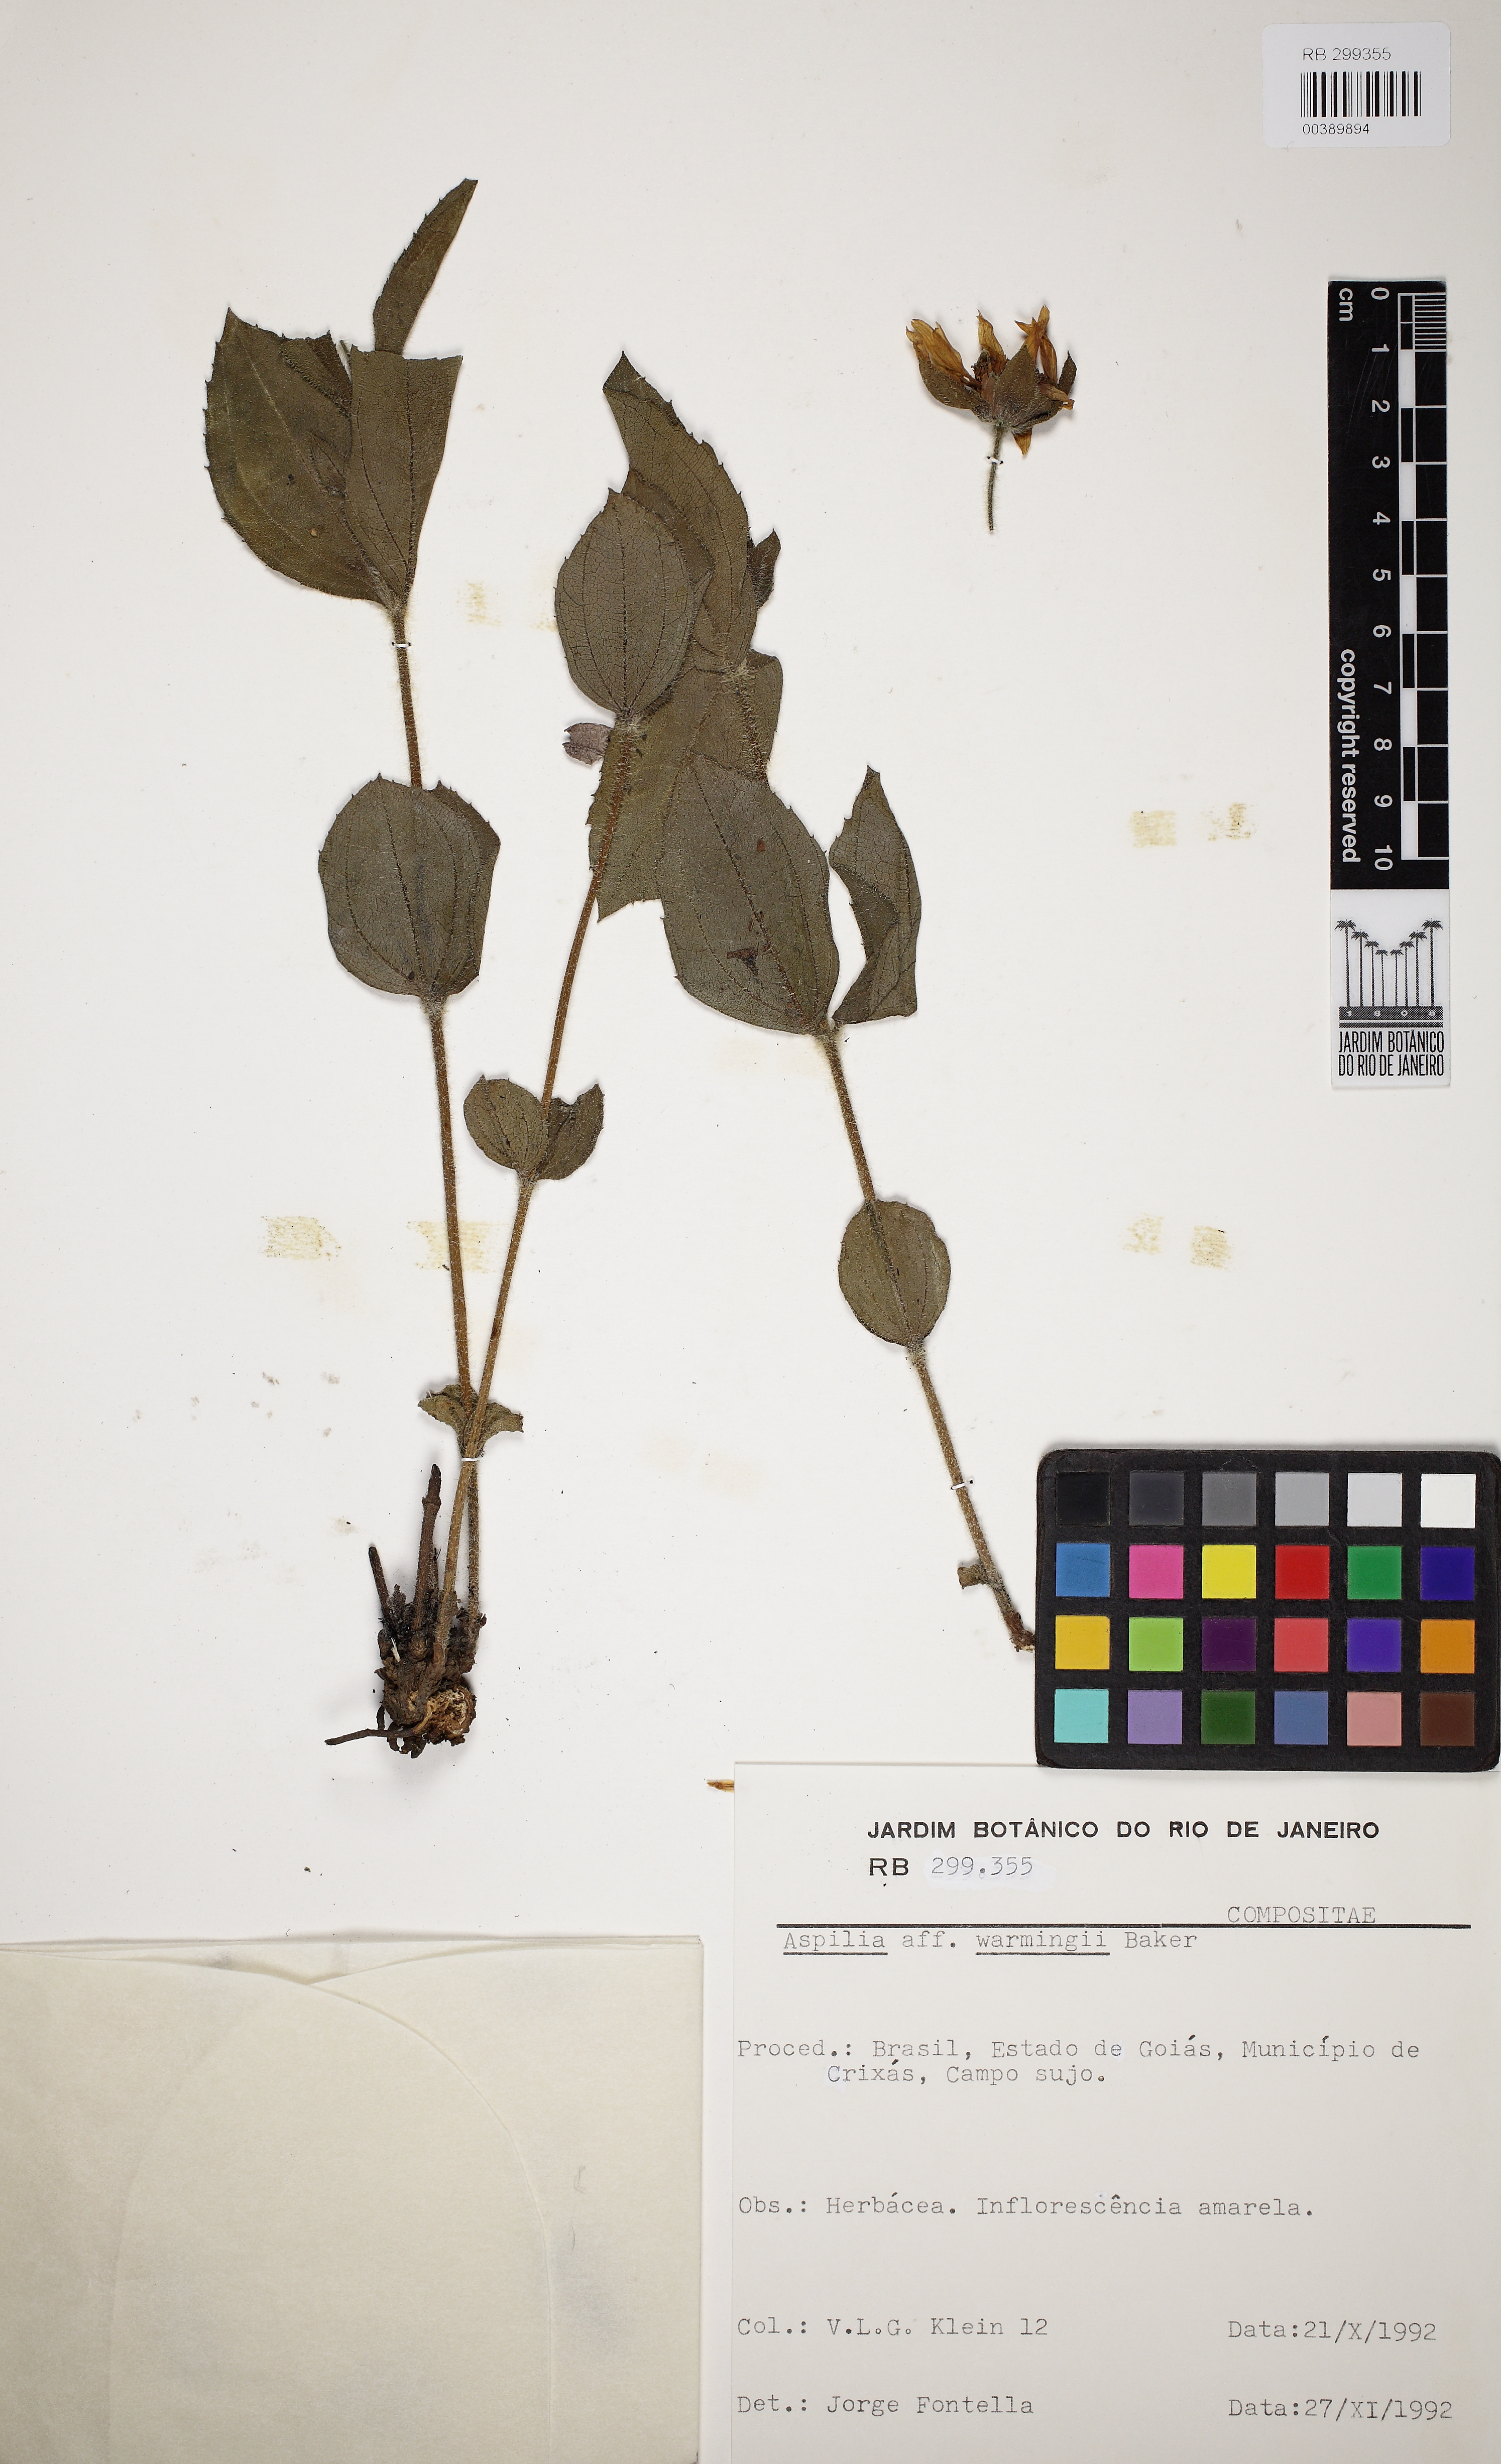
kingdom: Plantae
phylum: Tracheophyta
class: Magnoliopsida
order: Asterales
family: Asteraceae
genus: Wedelia
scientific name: Wedelia warmingii
